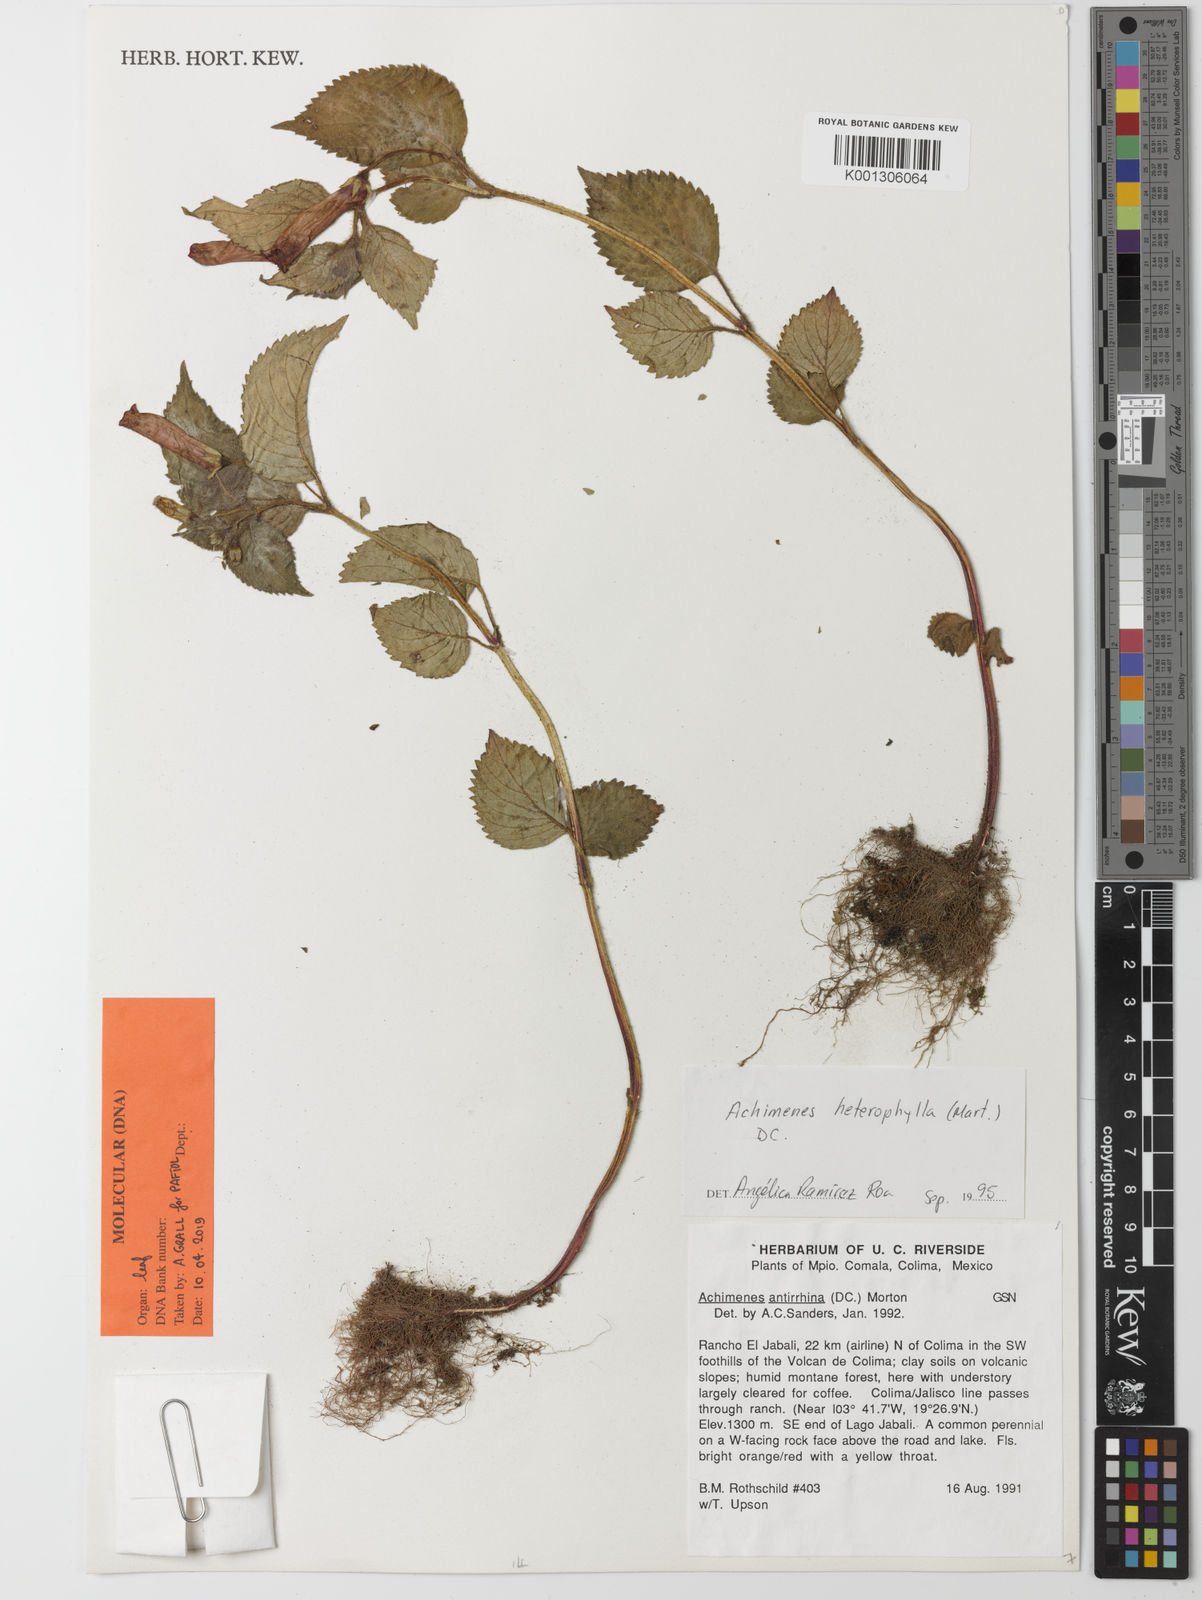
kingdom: Plantae
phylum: Tracheophyta
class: Magnoliopsida
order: Lamiales
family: Gesneriaceae
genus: Achimenes
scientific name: Achimenes heterophylla
